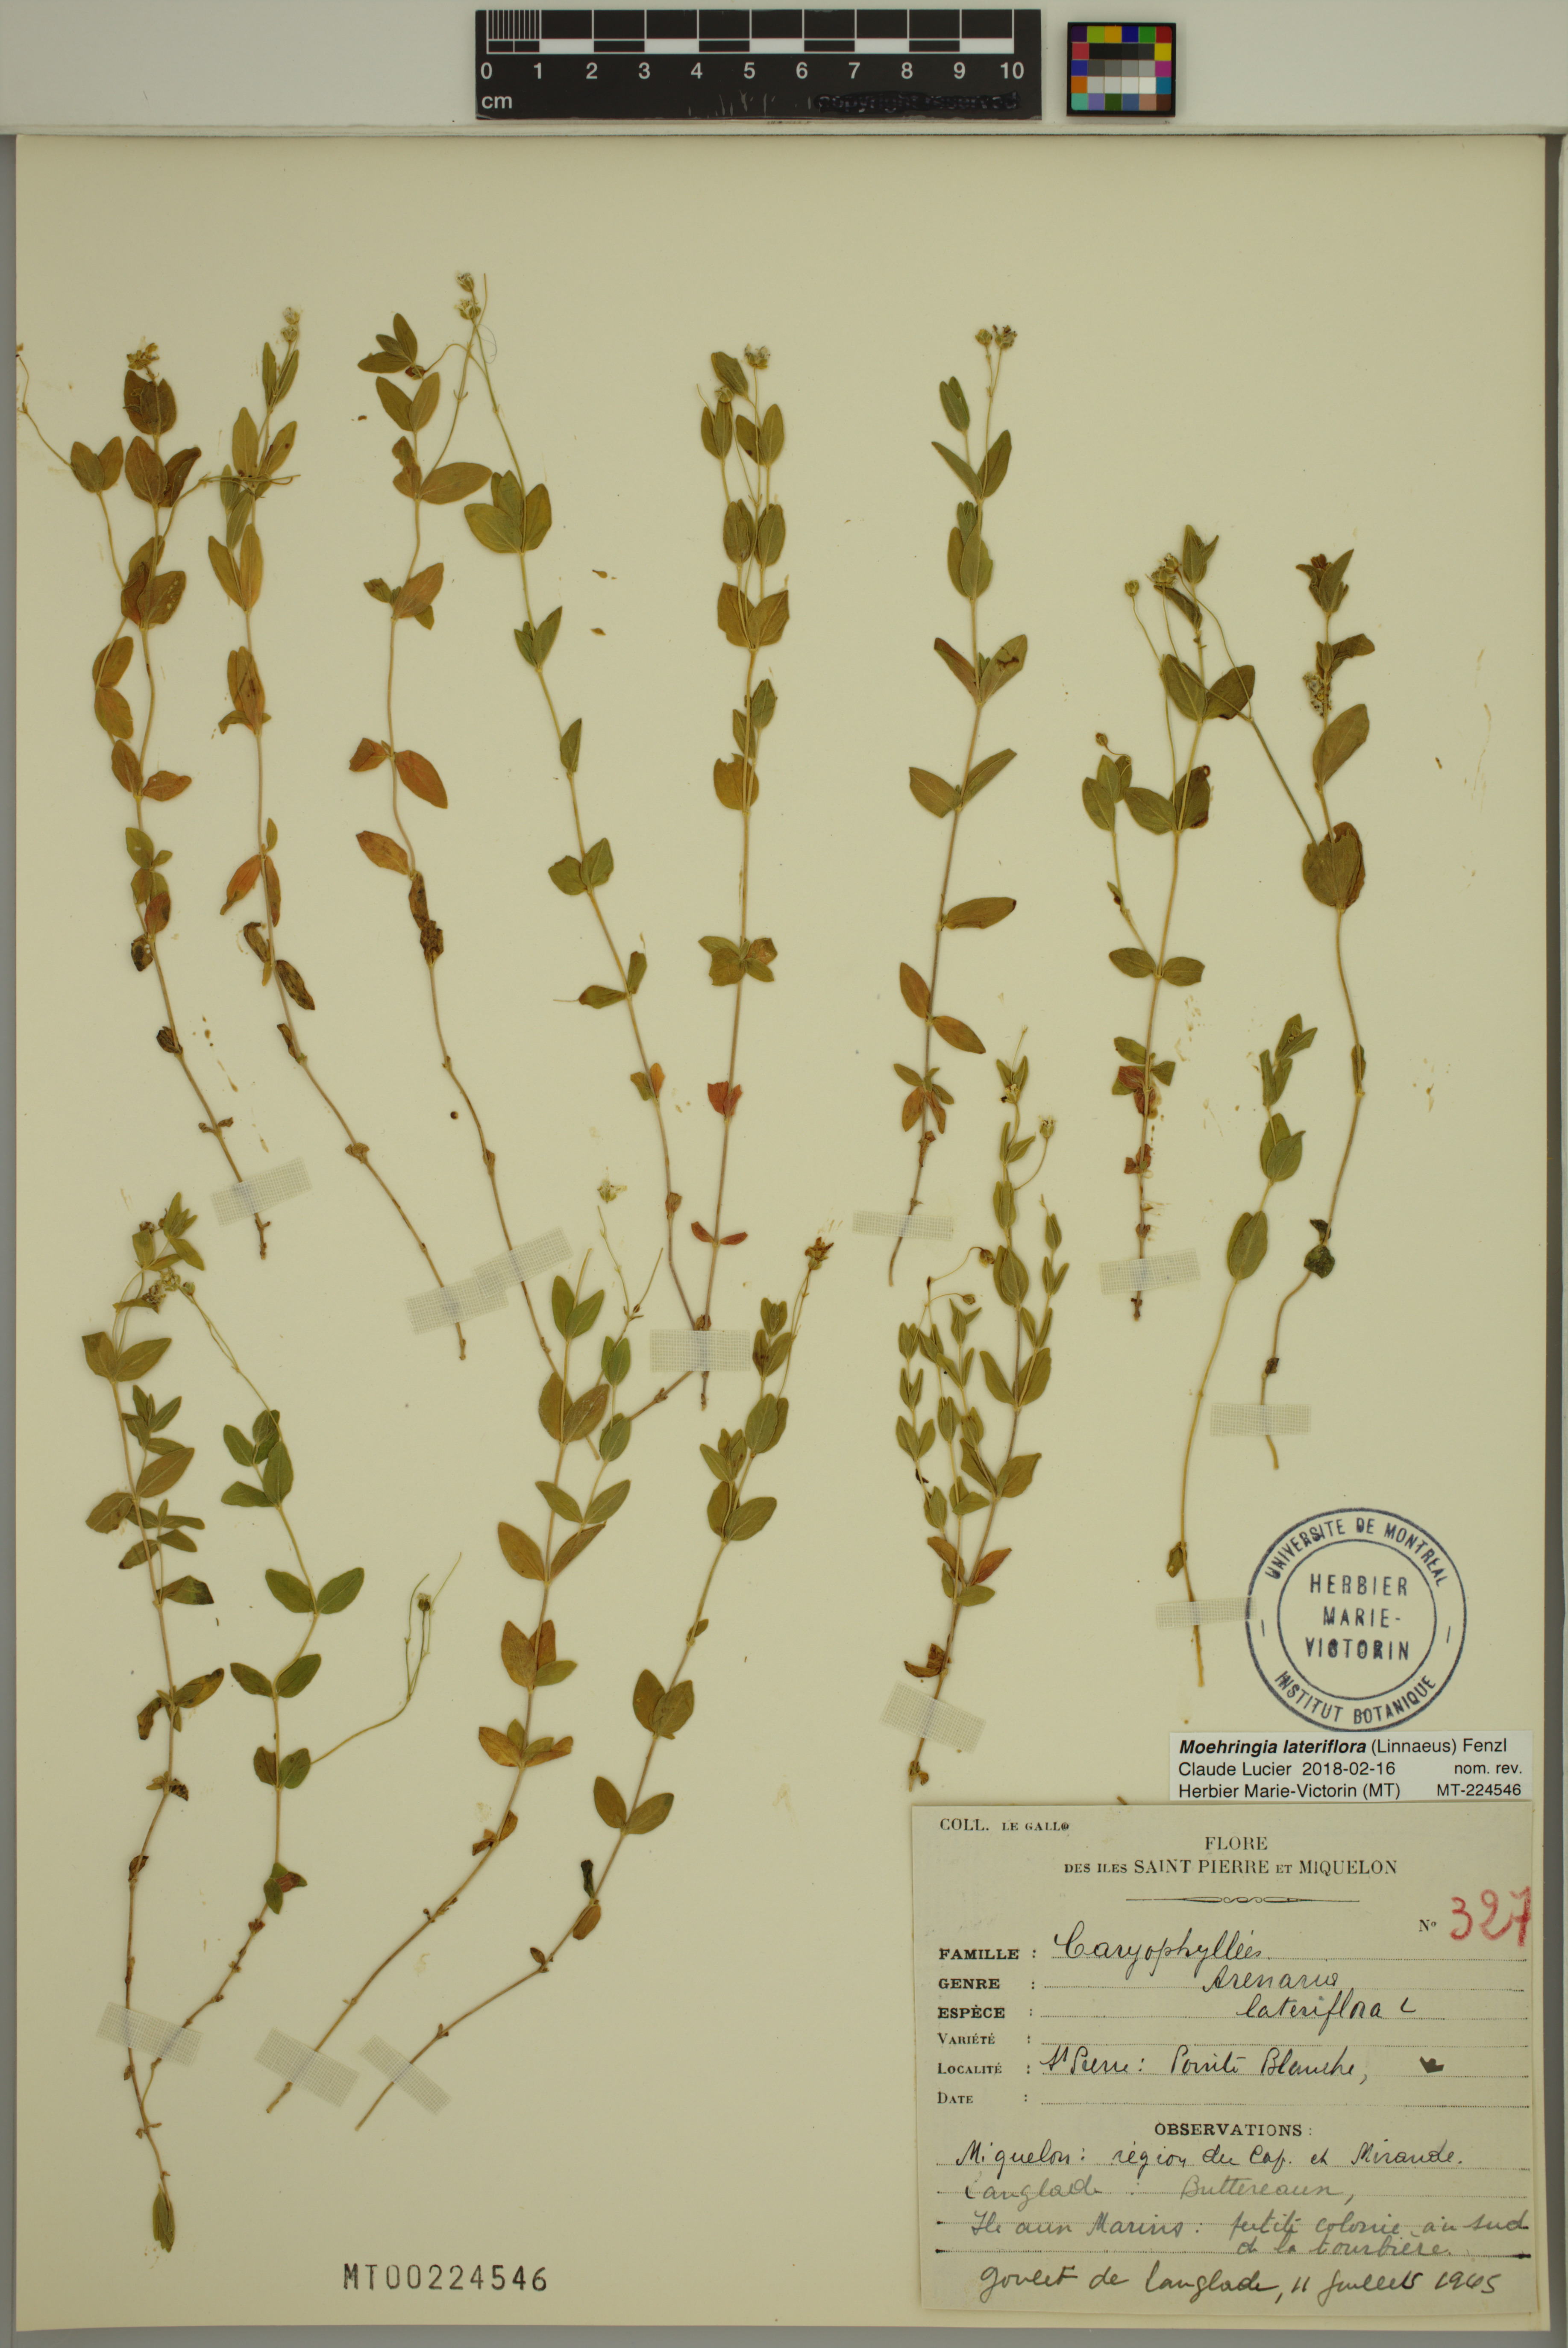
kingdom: Plantae
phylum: Tracheophyta
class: Magnoliopsida
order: Caryophyllales
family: Caryophyllaceae
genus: Moehringia
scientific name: Moehringia lateriflora
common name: Blunt-leaved sandwort
